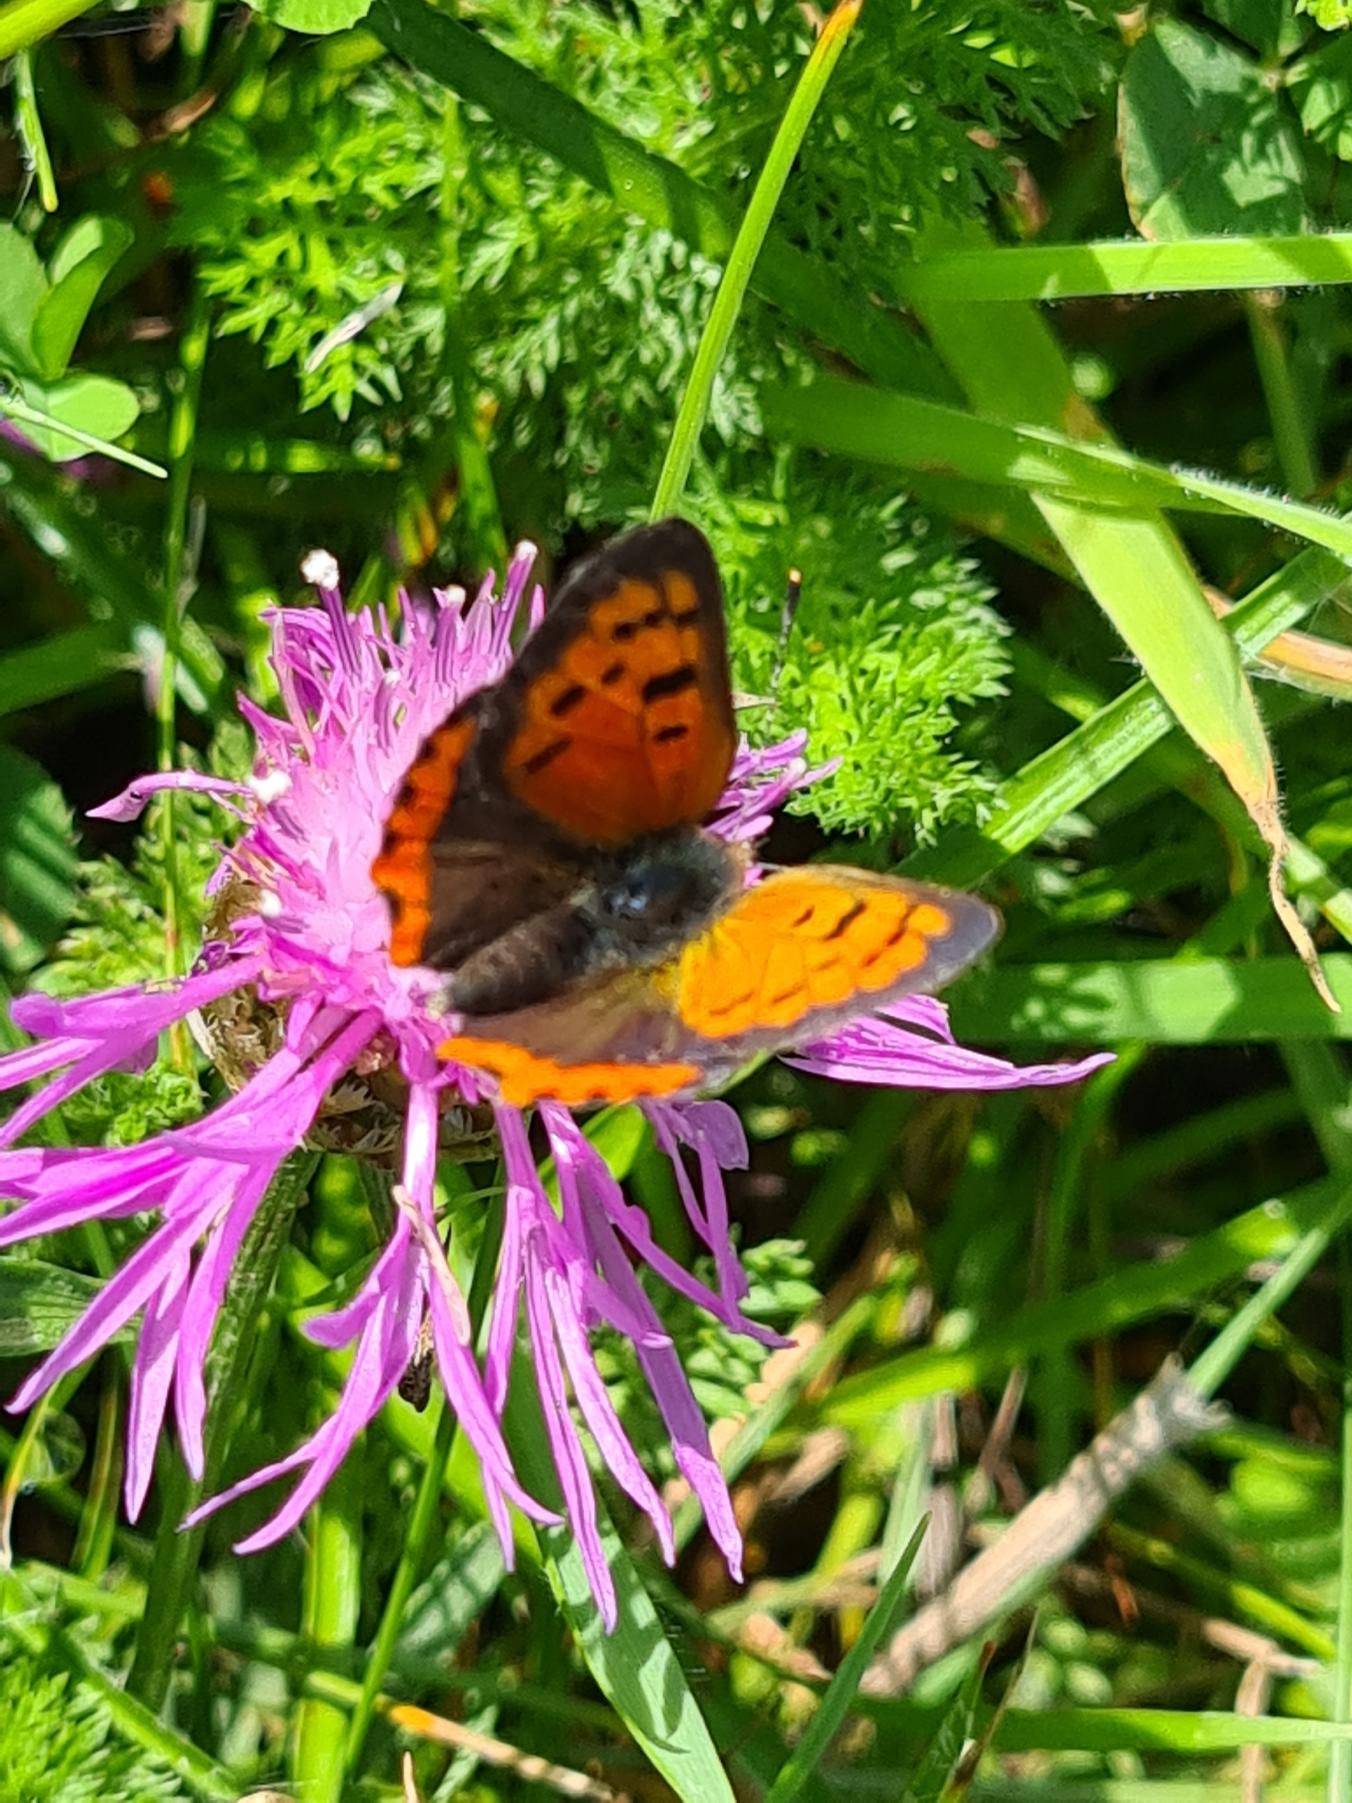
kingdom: Animalia
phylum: Arthropoda
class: Insecta
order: Lepidoptera
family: Lycaenidae
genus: Lycaena
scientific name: Lycaena phlaeas
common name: Lille ildfugl
